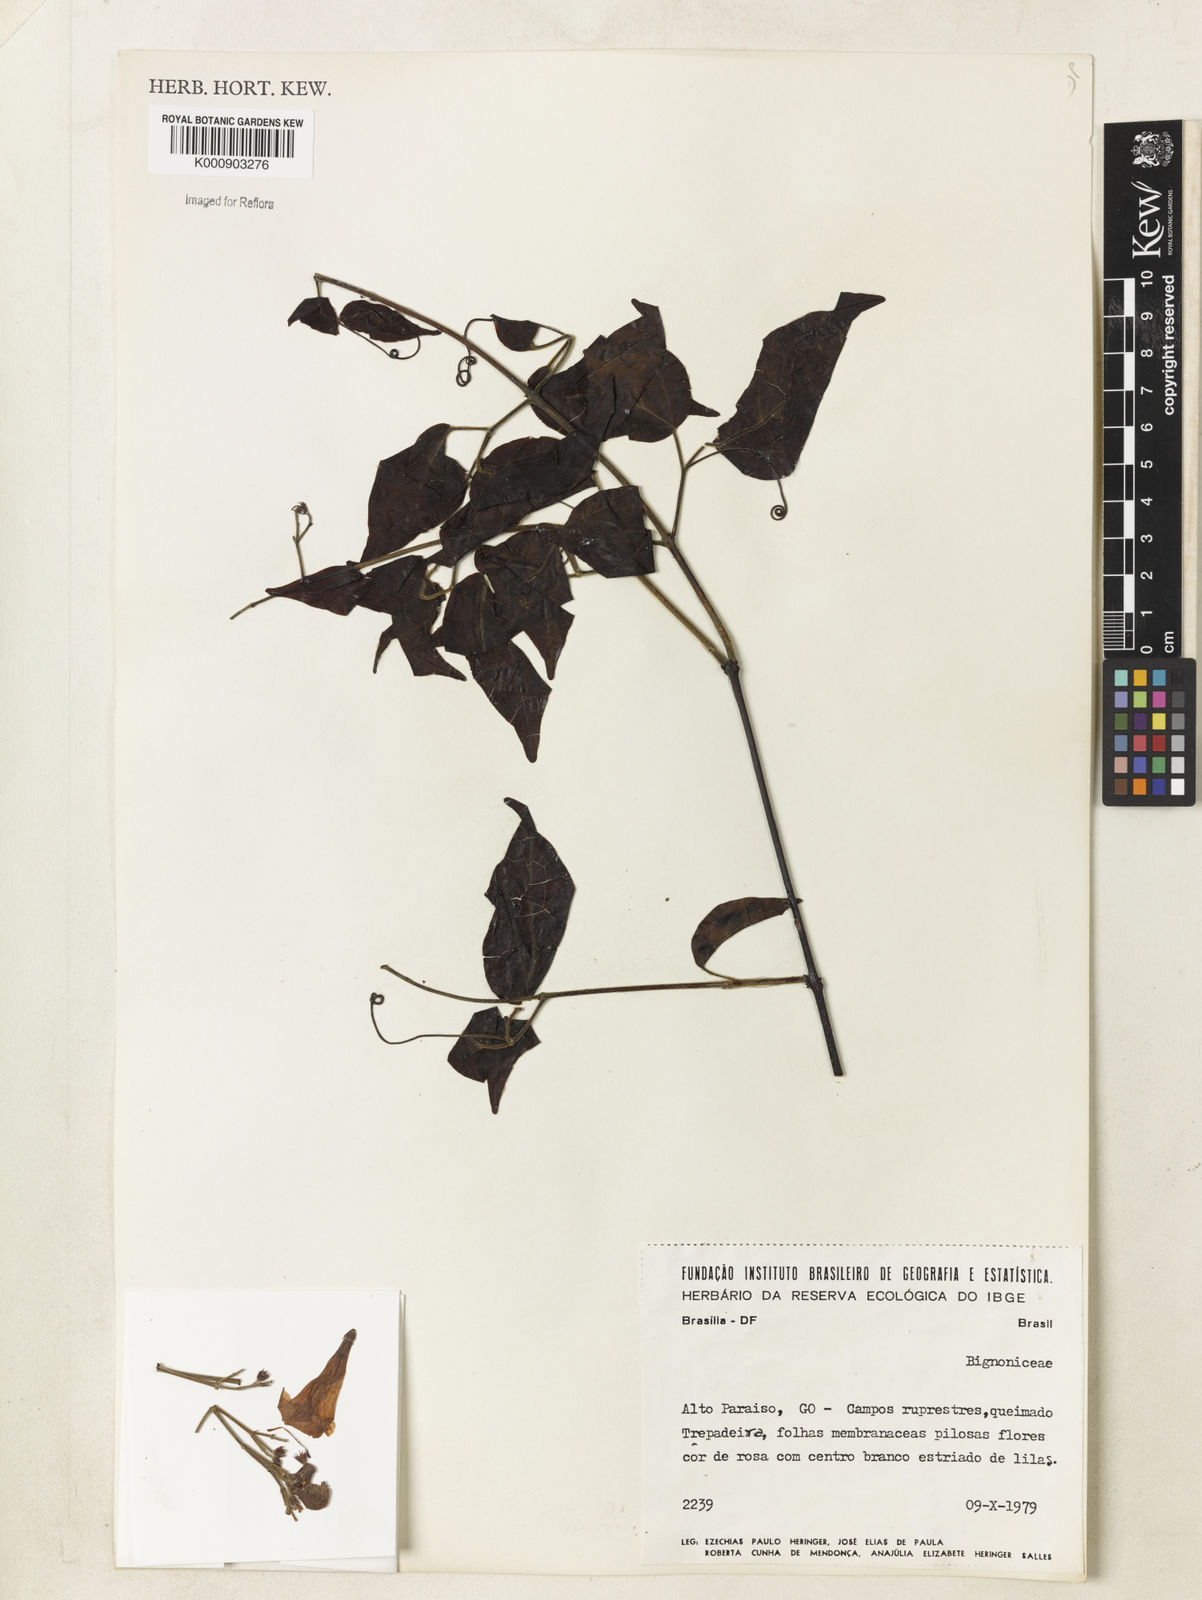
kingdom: Plantae
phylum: Tracheophyta
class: Magnoliopsida
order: Lamiales
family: Bignoniaceae
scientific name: Bignoniaceae
